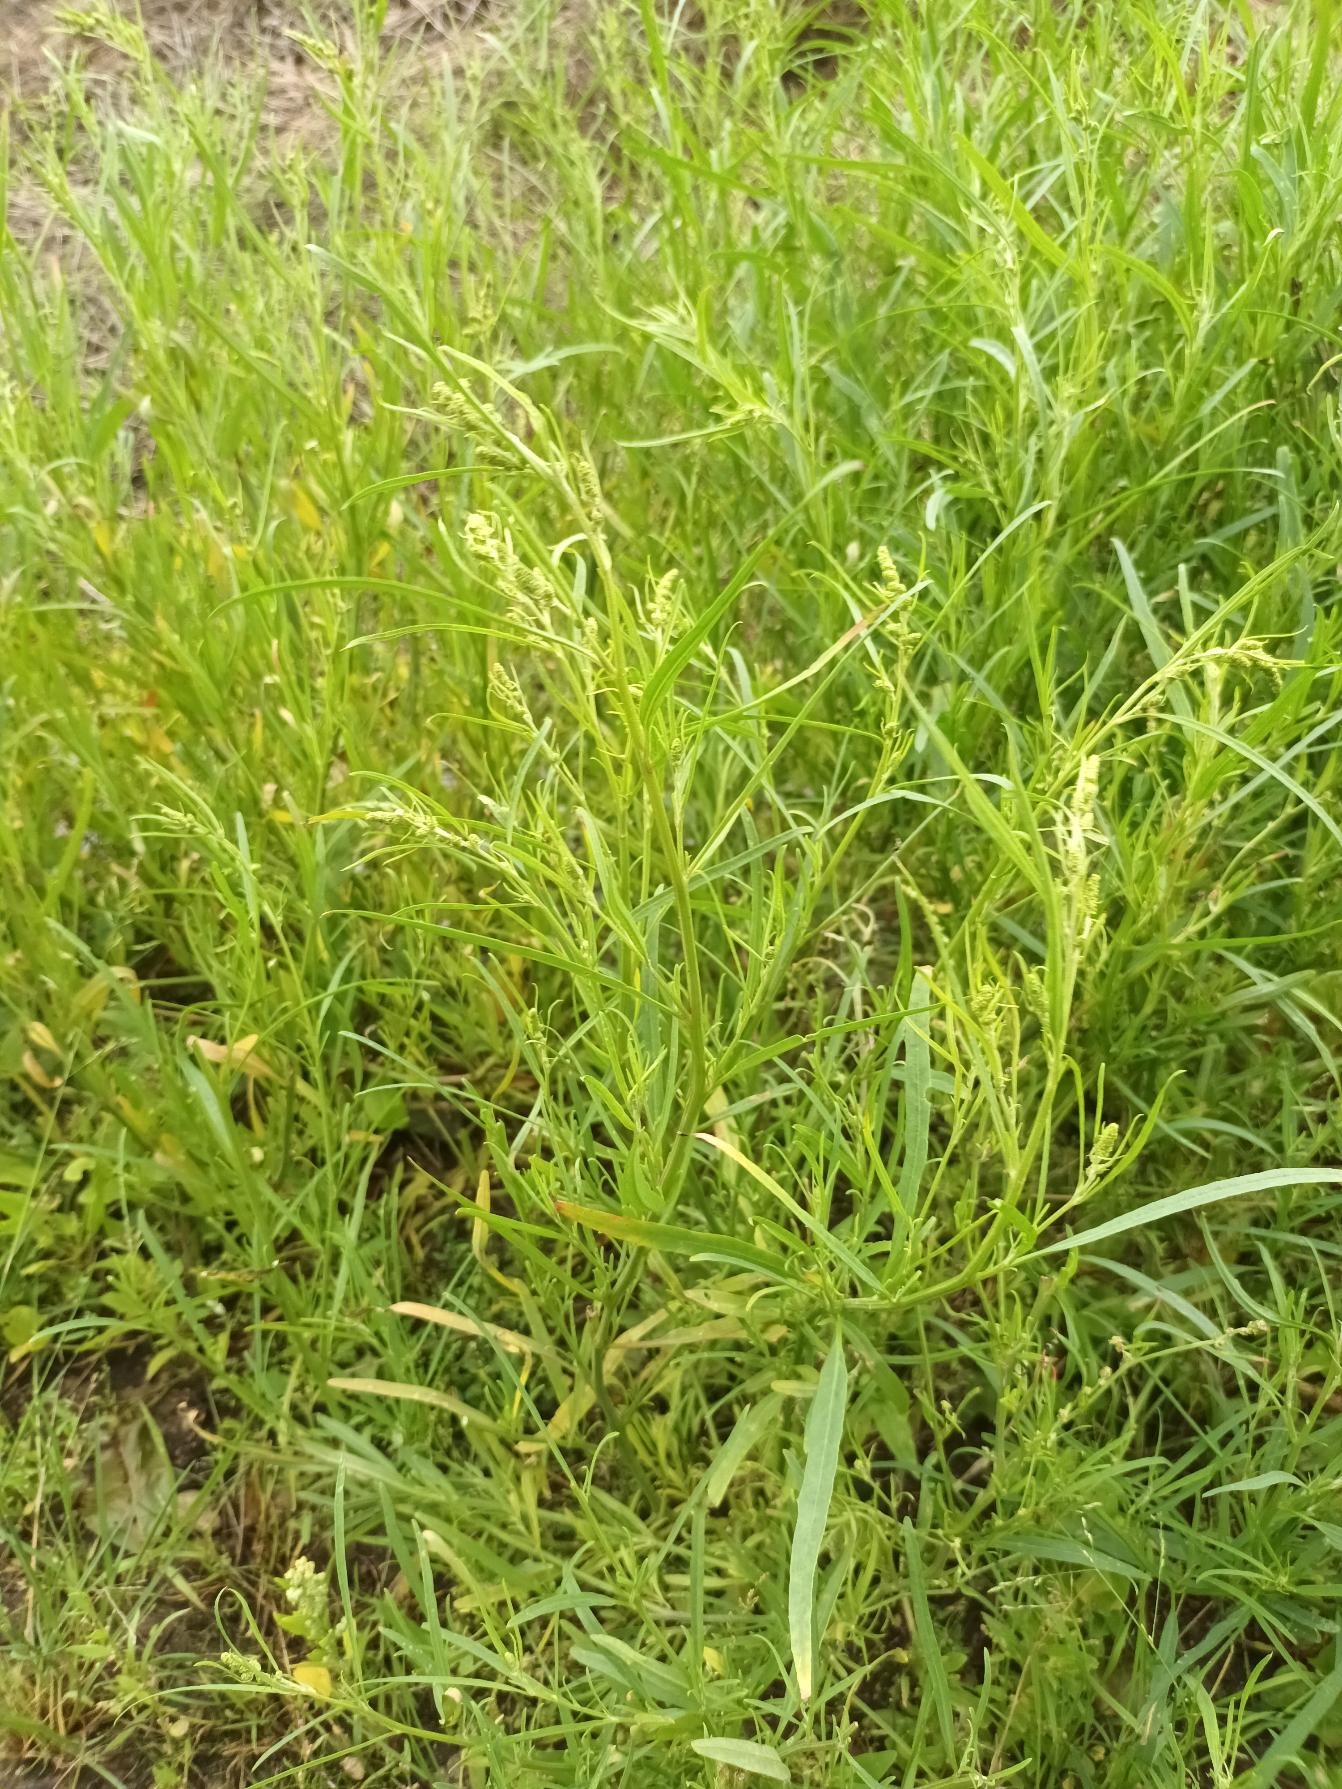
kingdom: Plantae
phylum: Tracheophyta
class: Magnoliopsida
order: Caryophyllales
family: Amaranthaceae
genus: Atriplex
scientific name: Atriplex littoralis
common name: Strand-mælde
